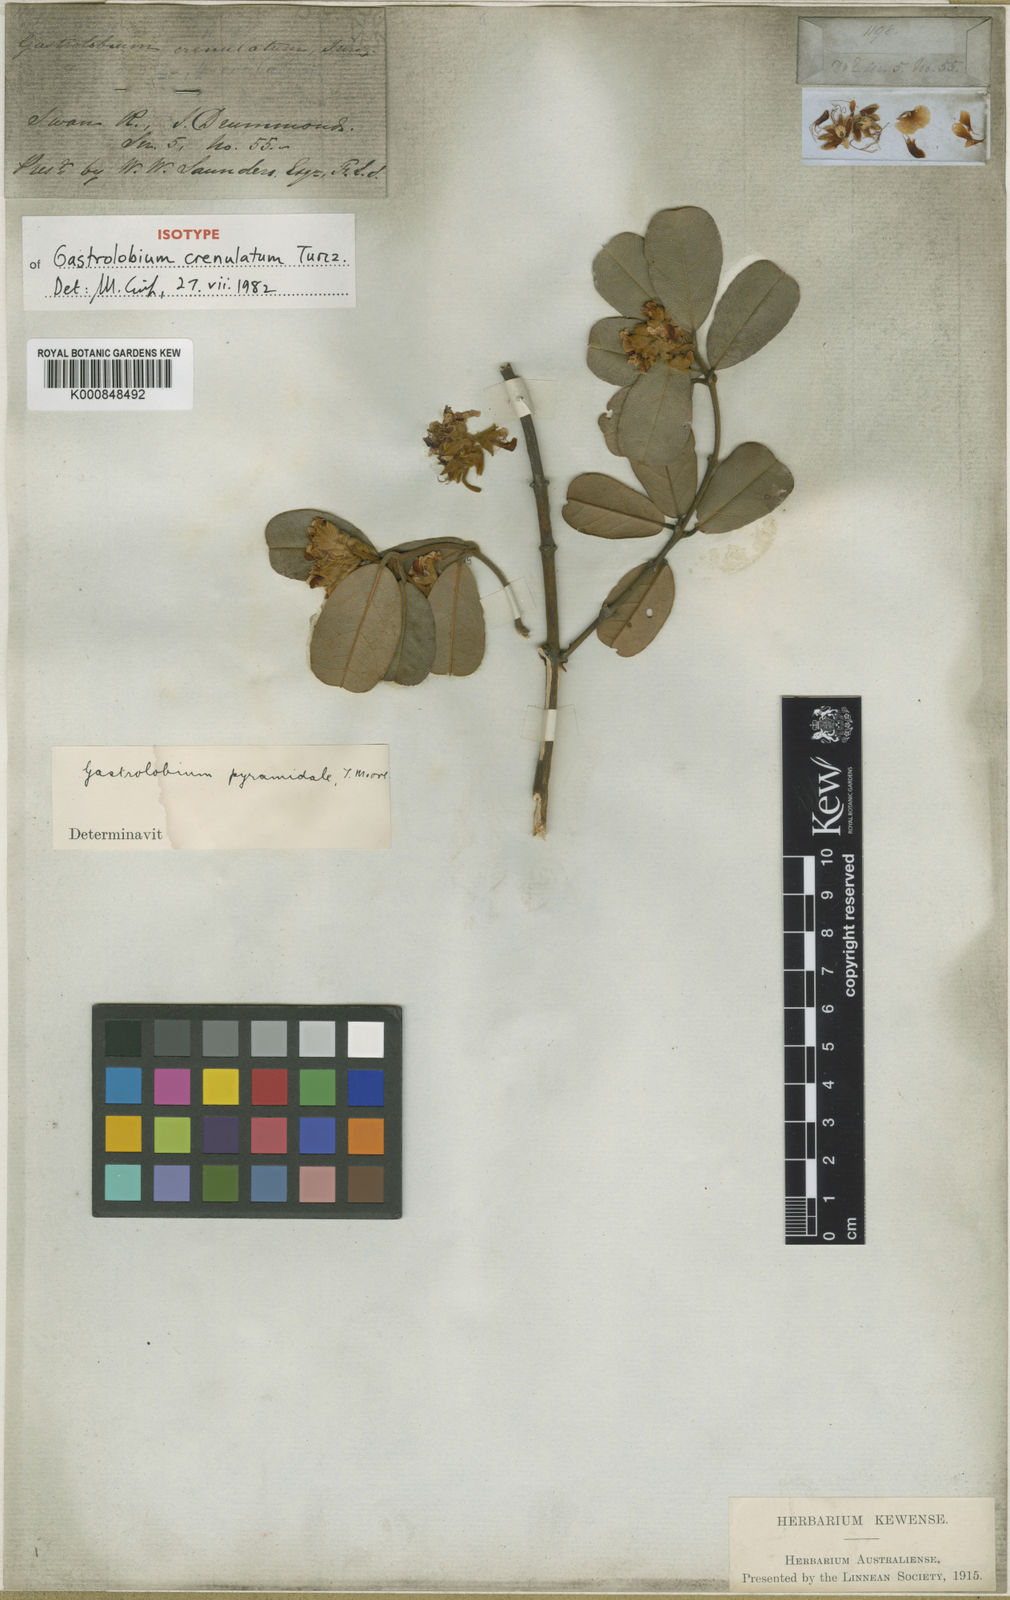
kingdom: Plantae
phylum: Tracheophyta
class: Magnoliopsida
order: Fabales
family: Fabaceae
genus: Gastrolobium
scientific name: Gastrolobium pyramidale
